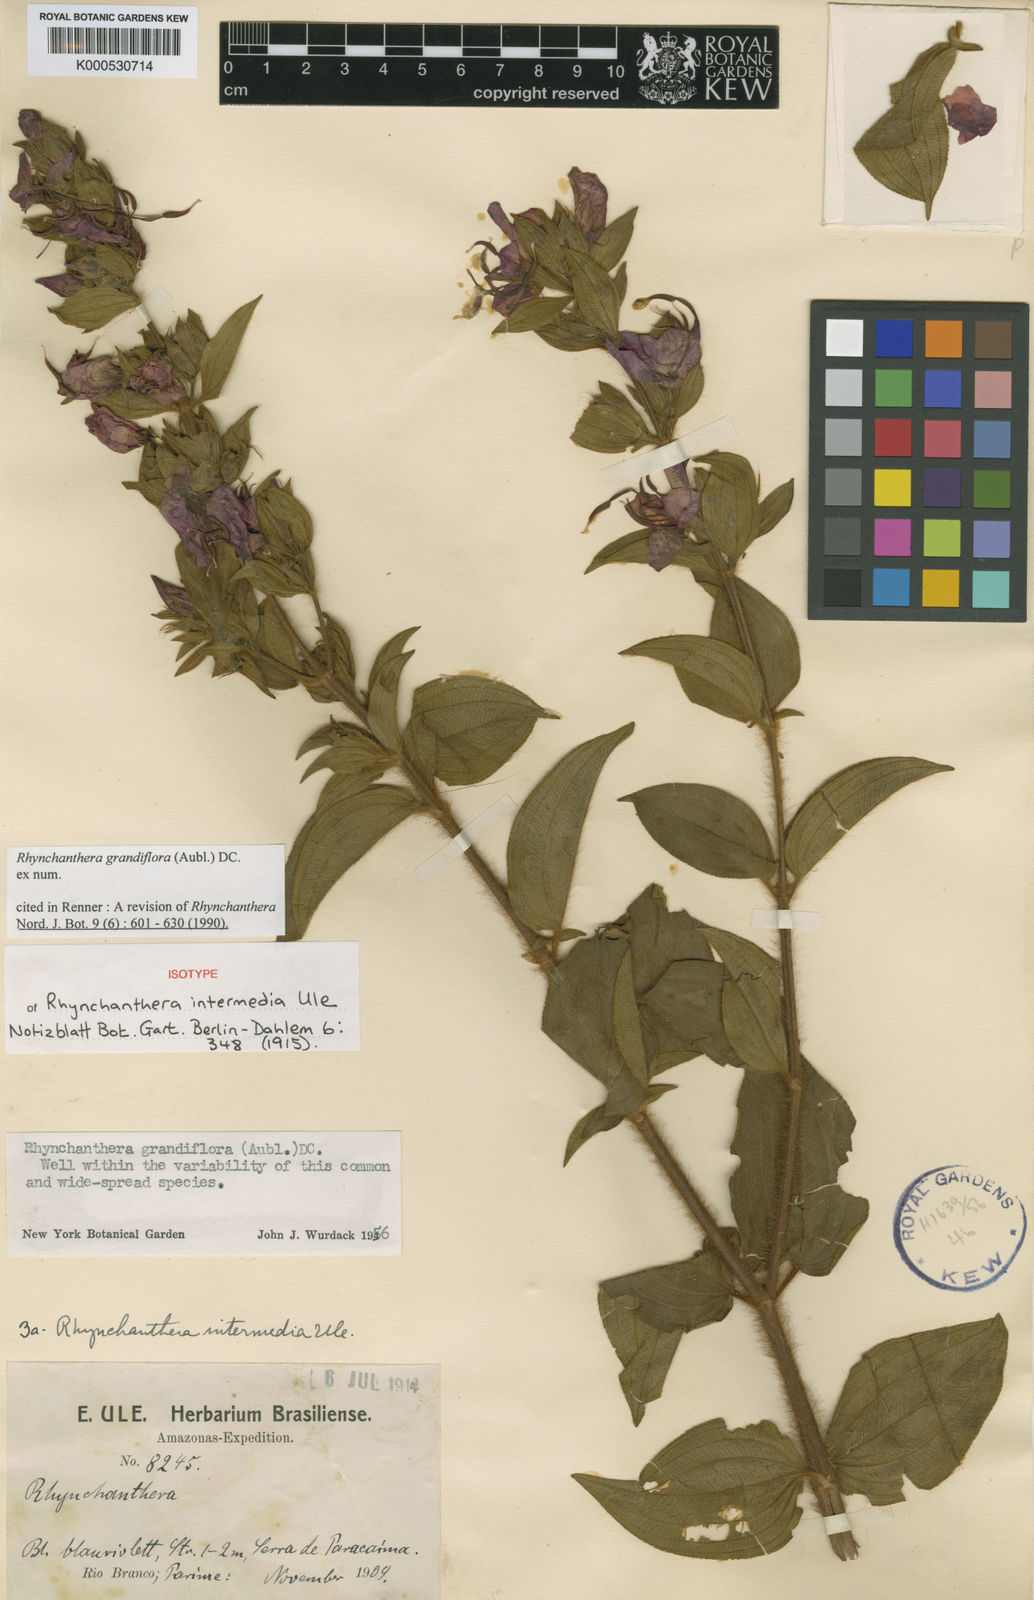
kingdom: Plantae
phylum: Tracheophyta
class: Magnoliopsida
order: Myrtales
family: Melastomataceae
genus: Rhynchanthera
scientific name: Rhynchanthera grandiflora
